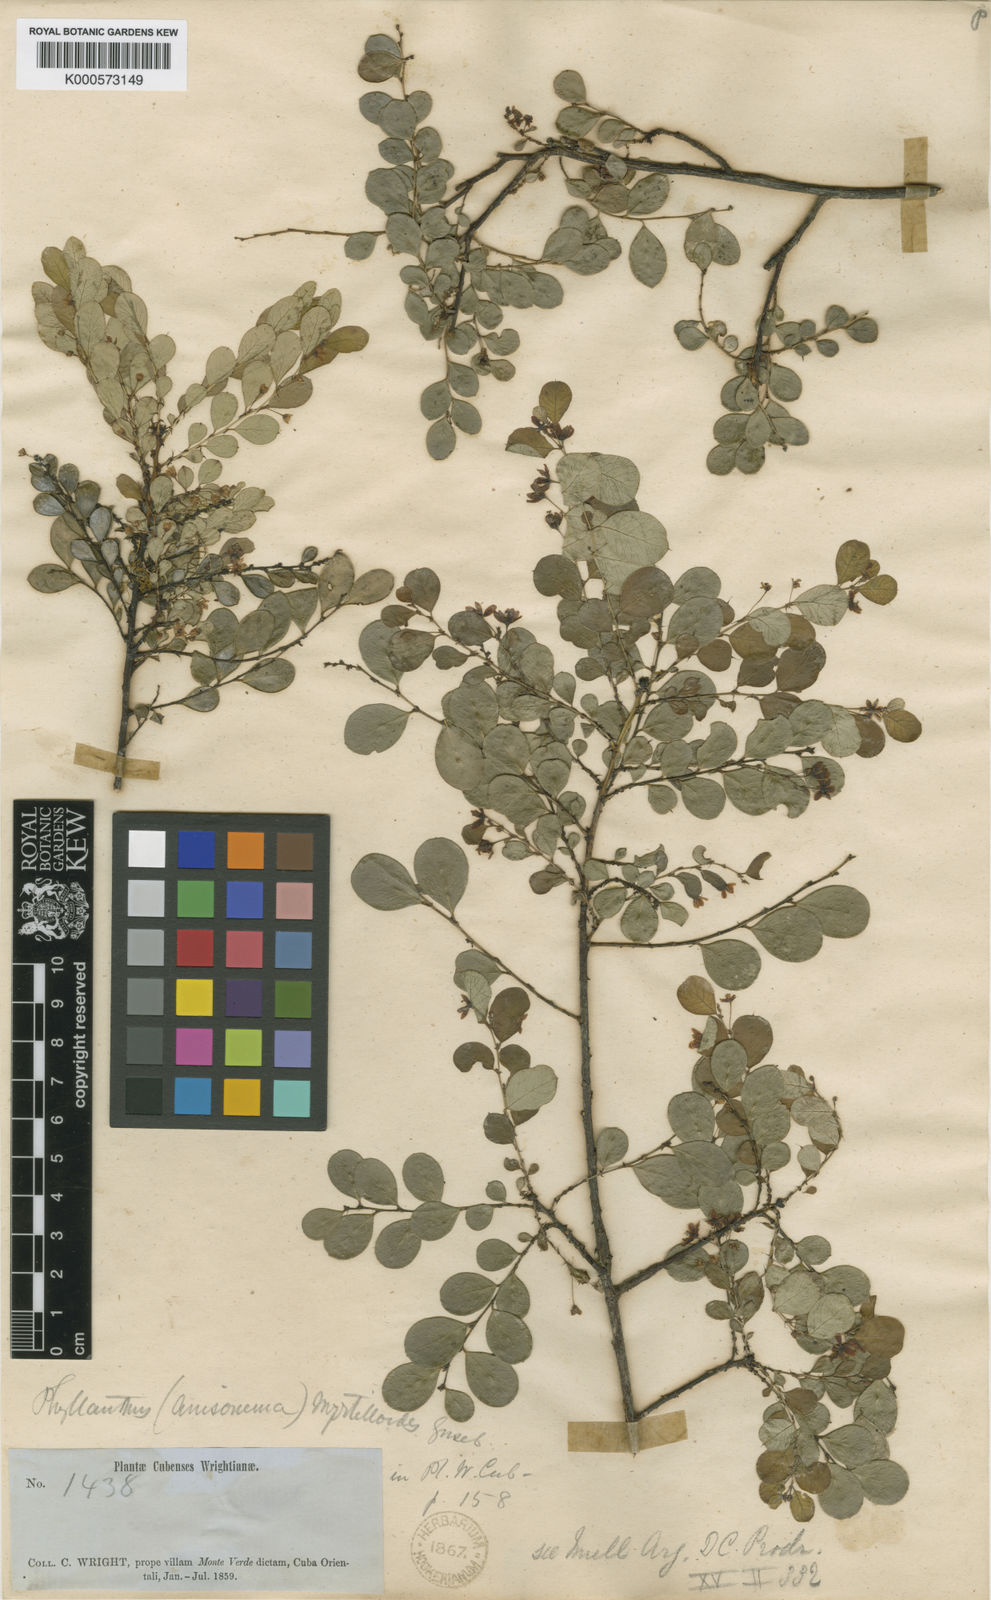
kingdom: Plantae
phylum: Tracheophyta
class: Magnoliopsida
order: Malpighiales
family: Phyllanthaceae
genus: Phyllanthus
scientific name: Phyllanthus myrtilloides
